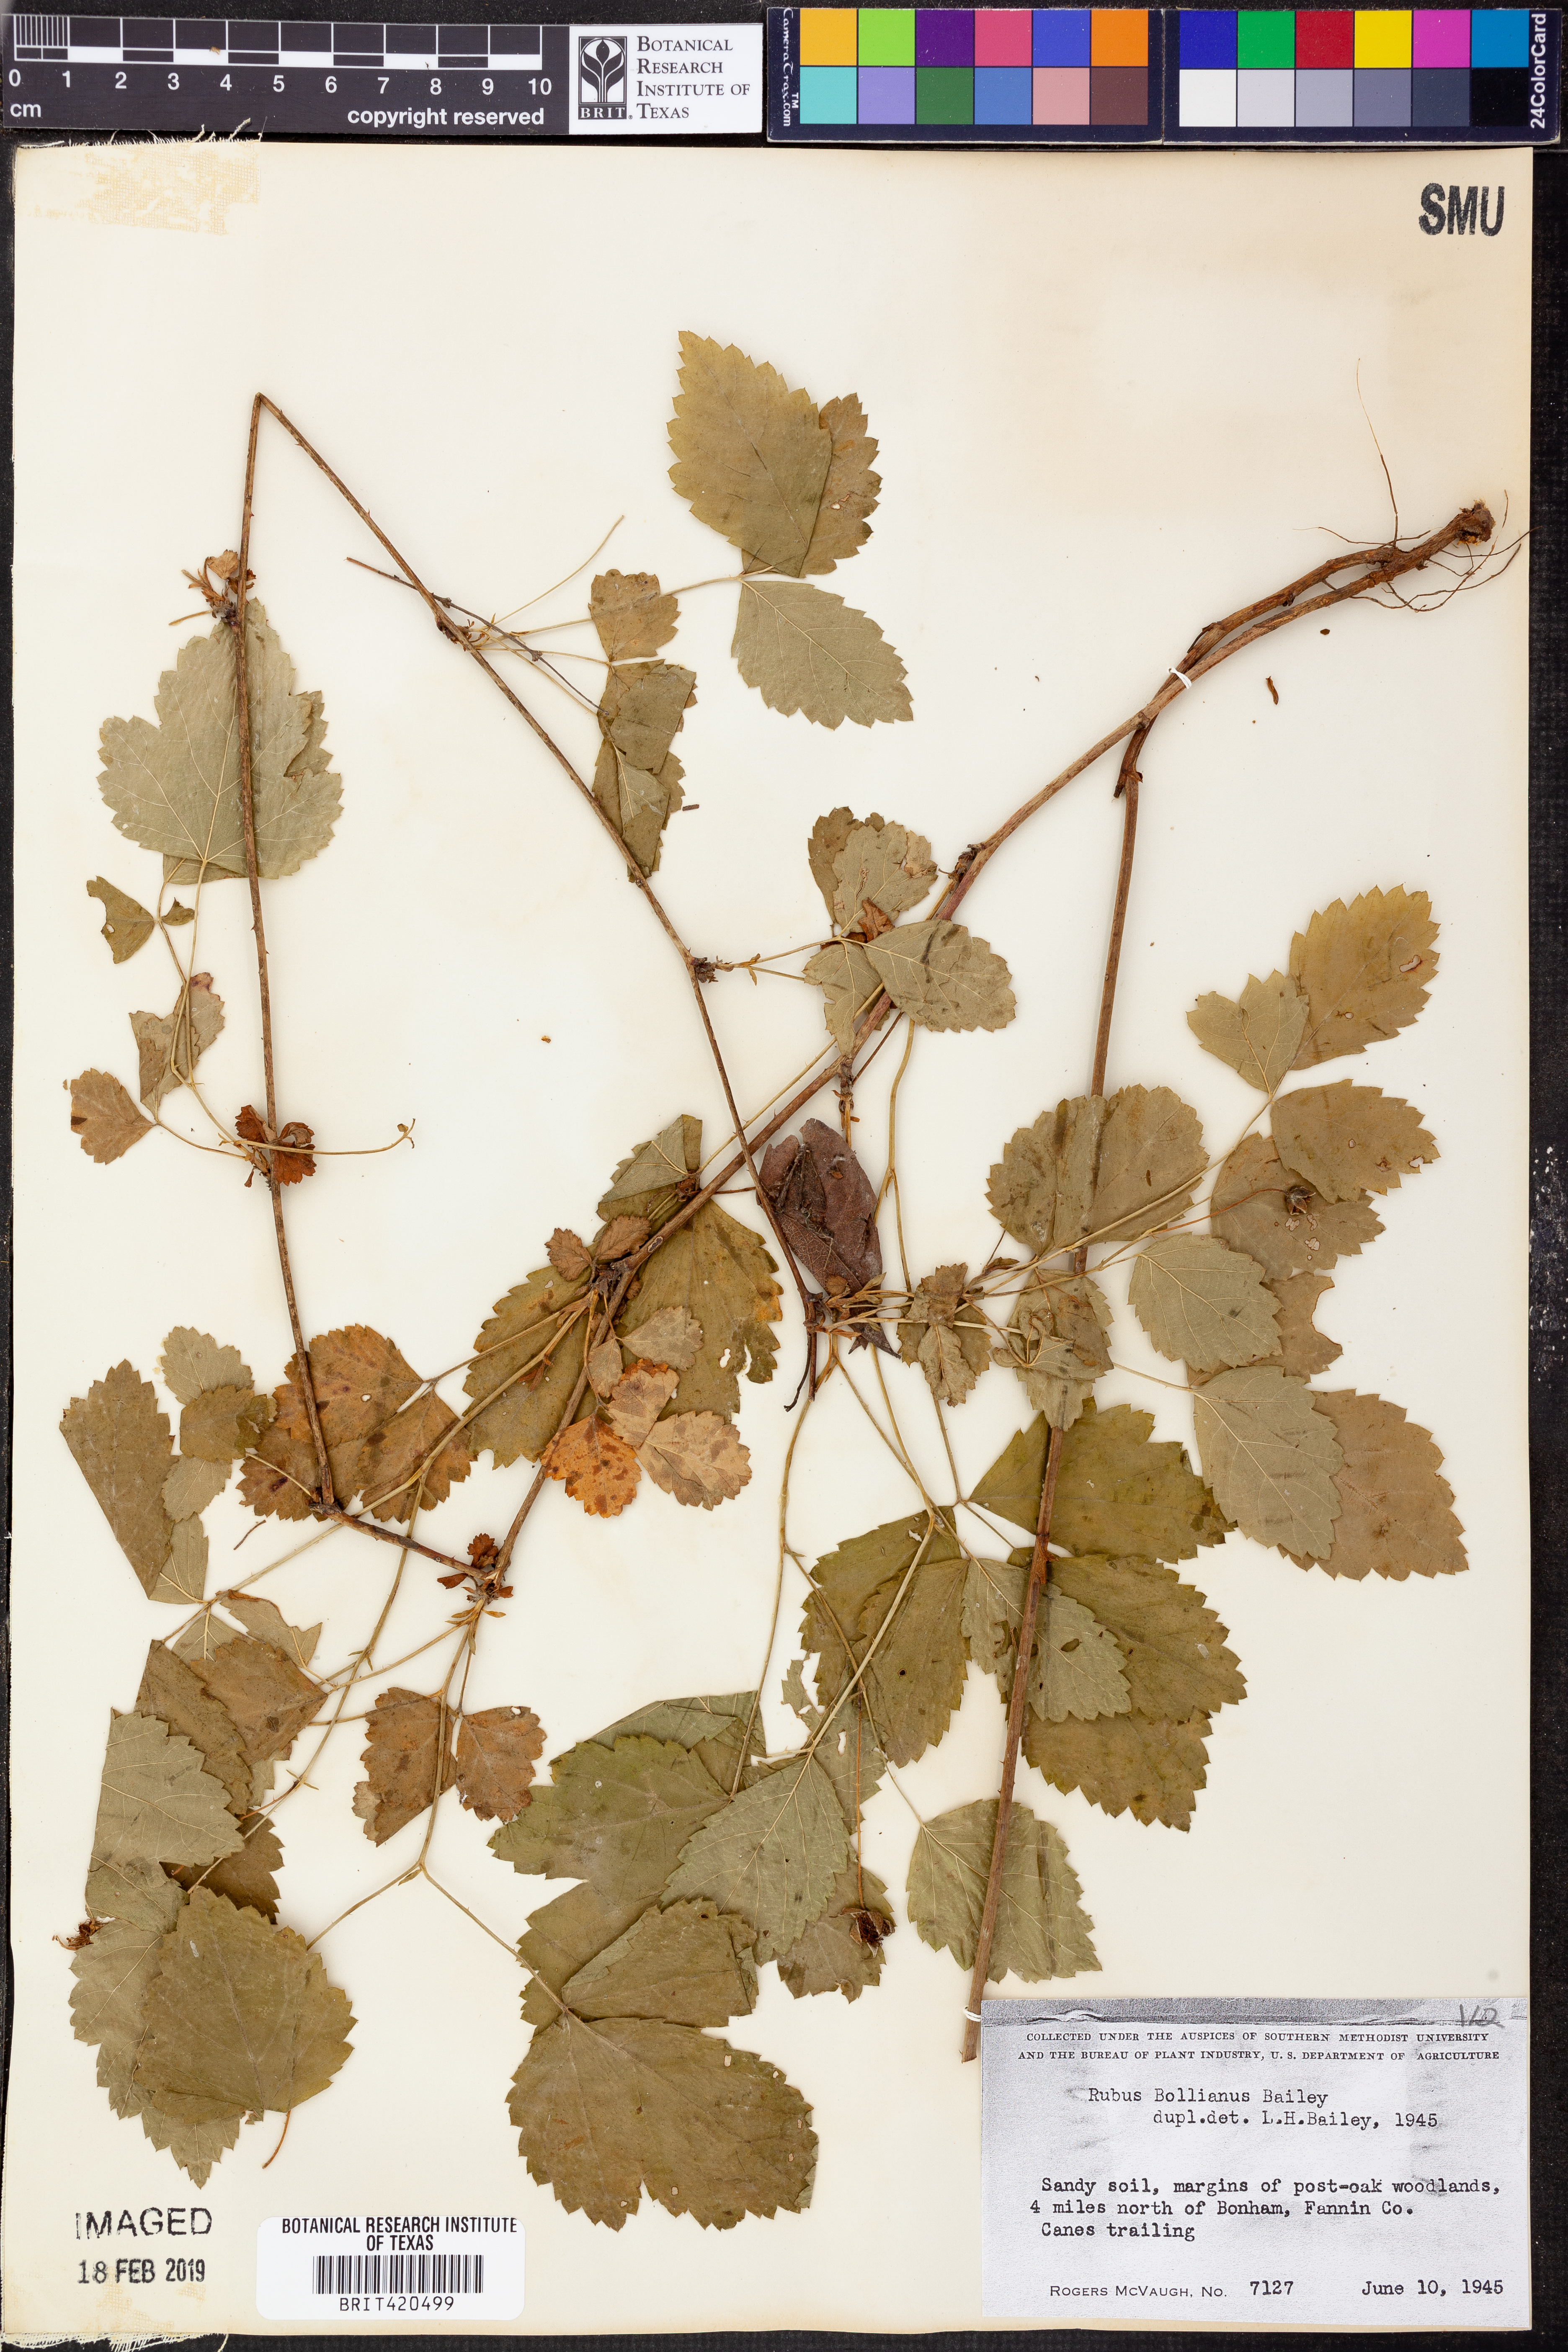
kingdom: Plantae
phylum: Tracheophyta
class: Magnoliopsida
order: Rosales
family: Rosaceae
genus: Rubus
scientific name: Rubus aboriginum
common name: Mayes dewberry
